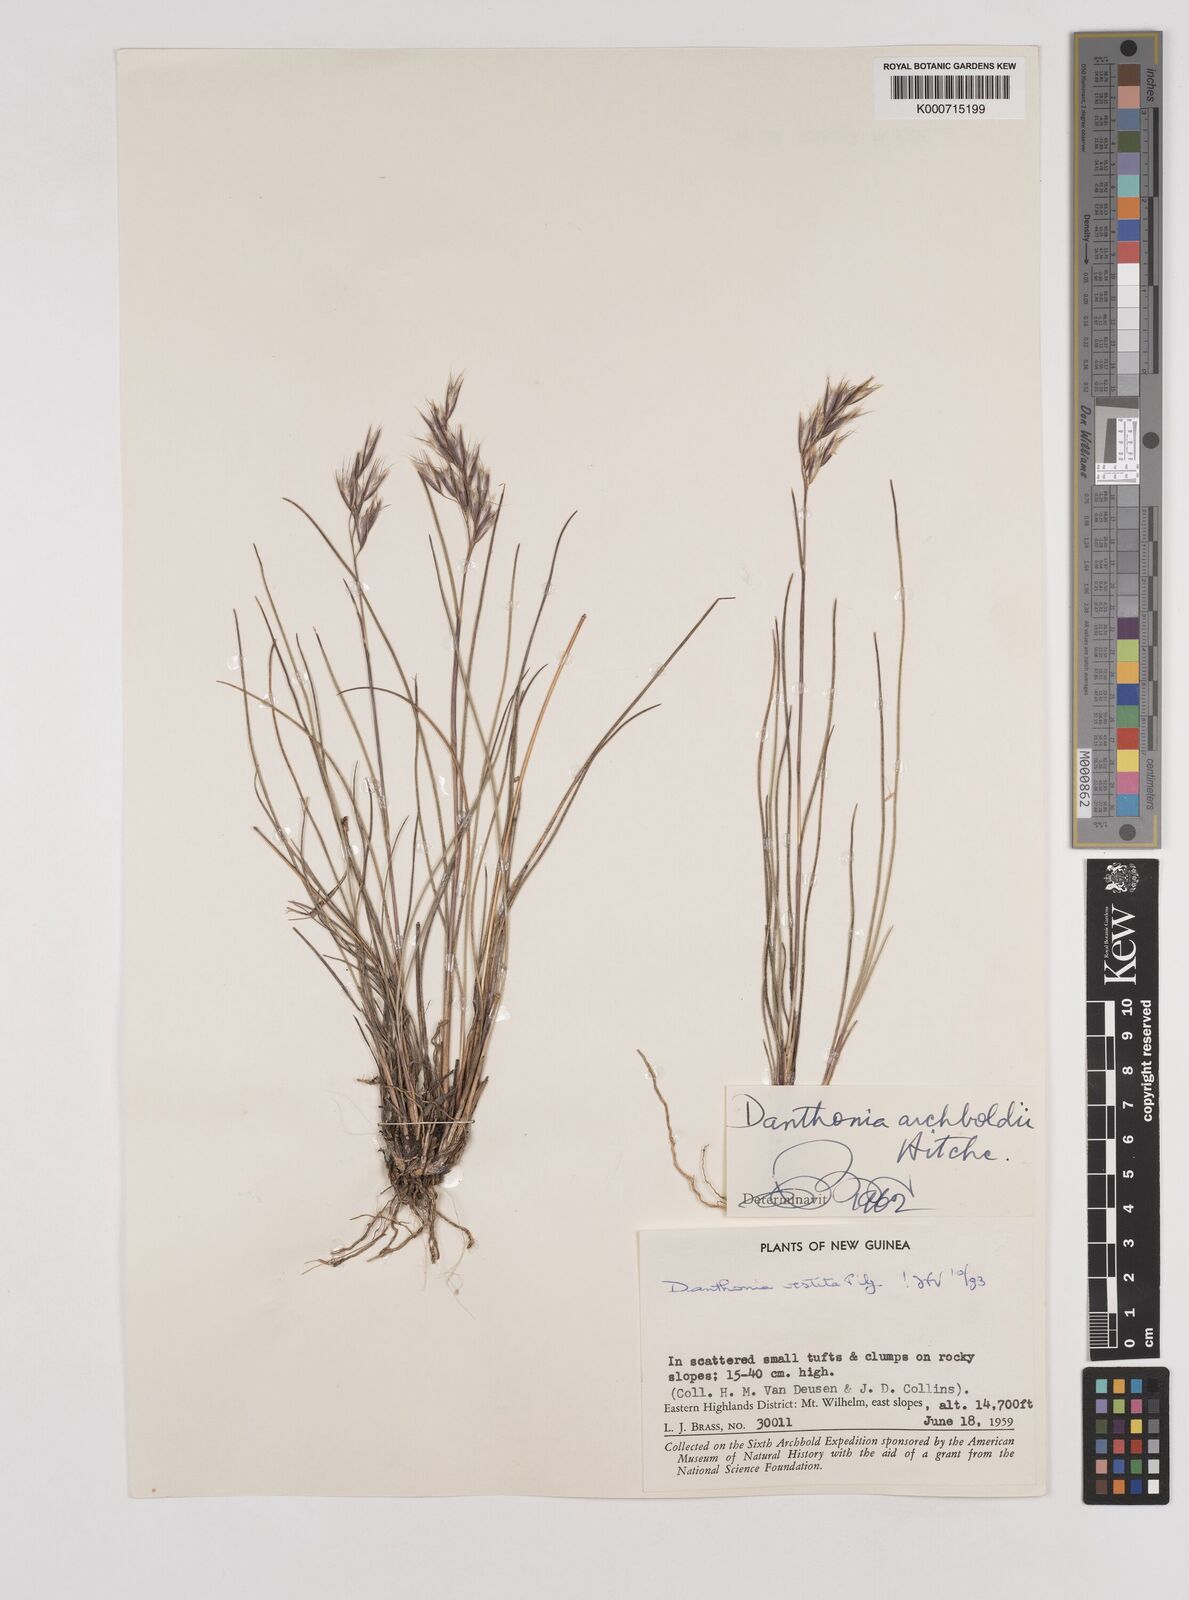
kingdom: Plantae
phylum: Tracheophyta
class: Liliopsida
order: Poales
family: Poaceae
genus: Rytidosperma
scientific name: Rytidosperma vestitum
